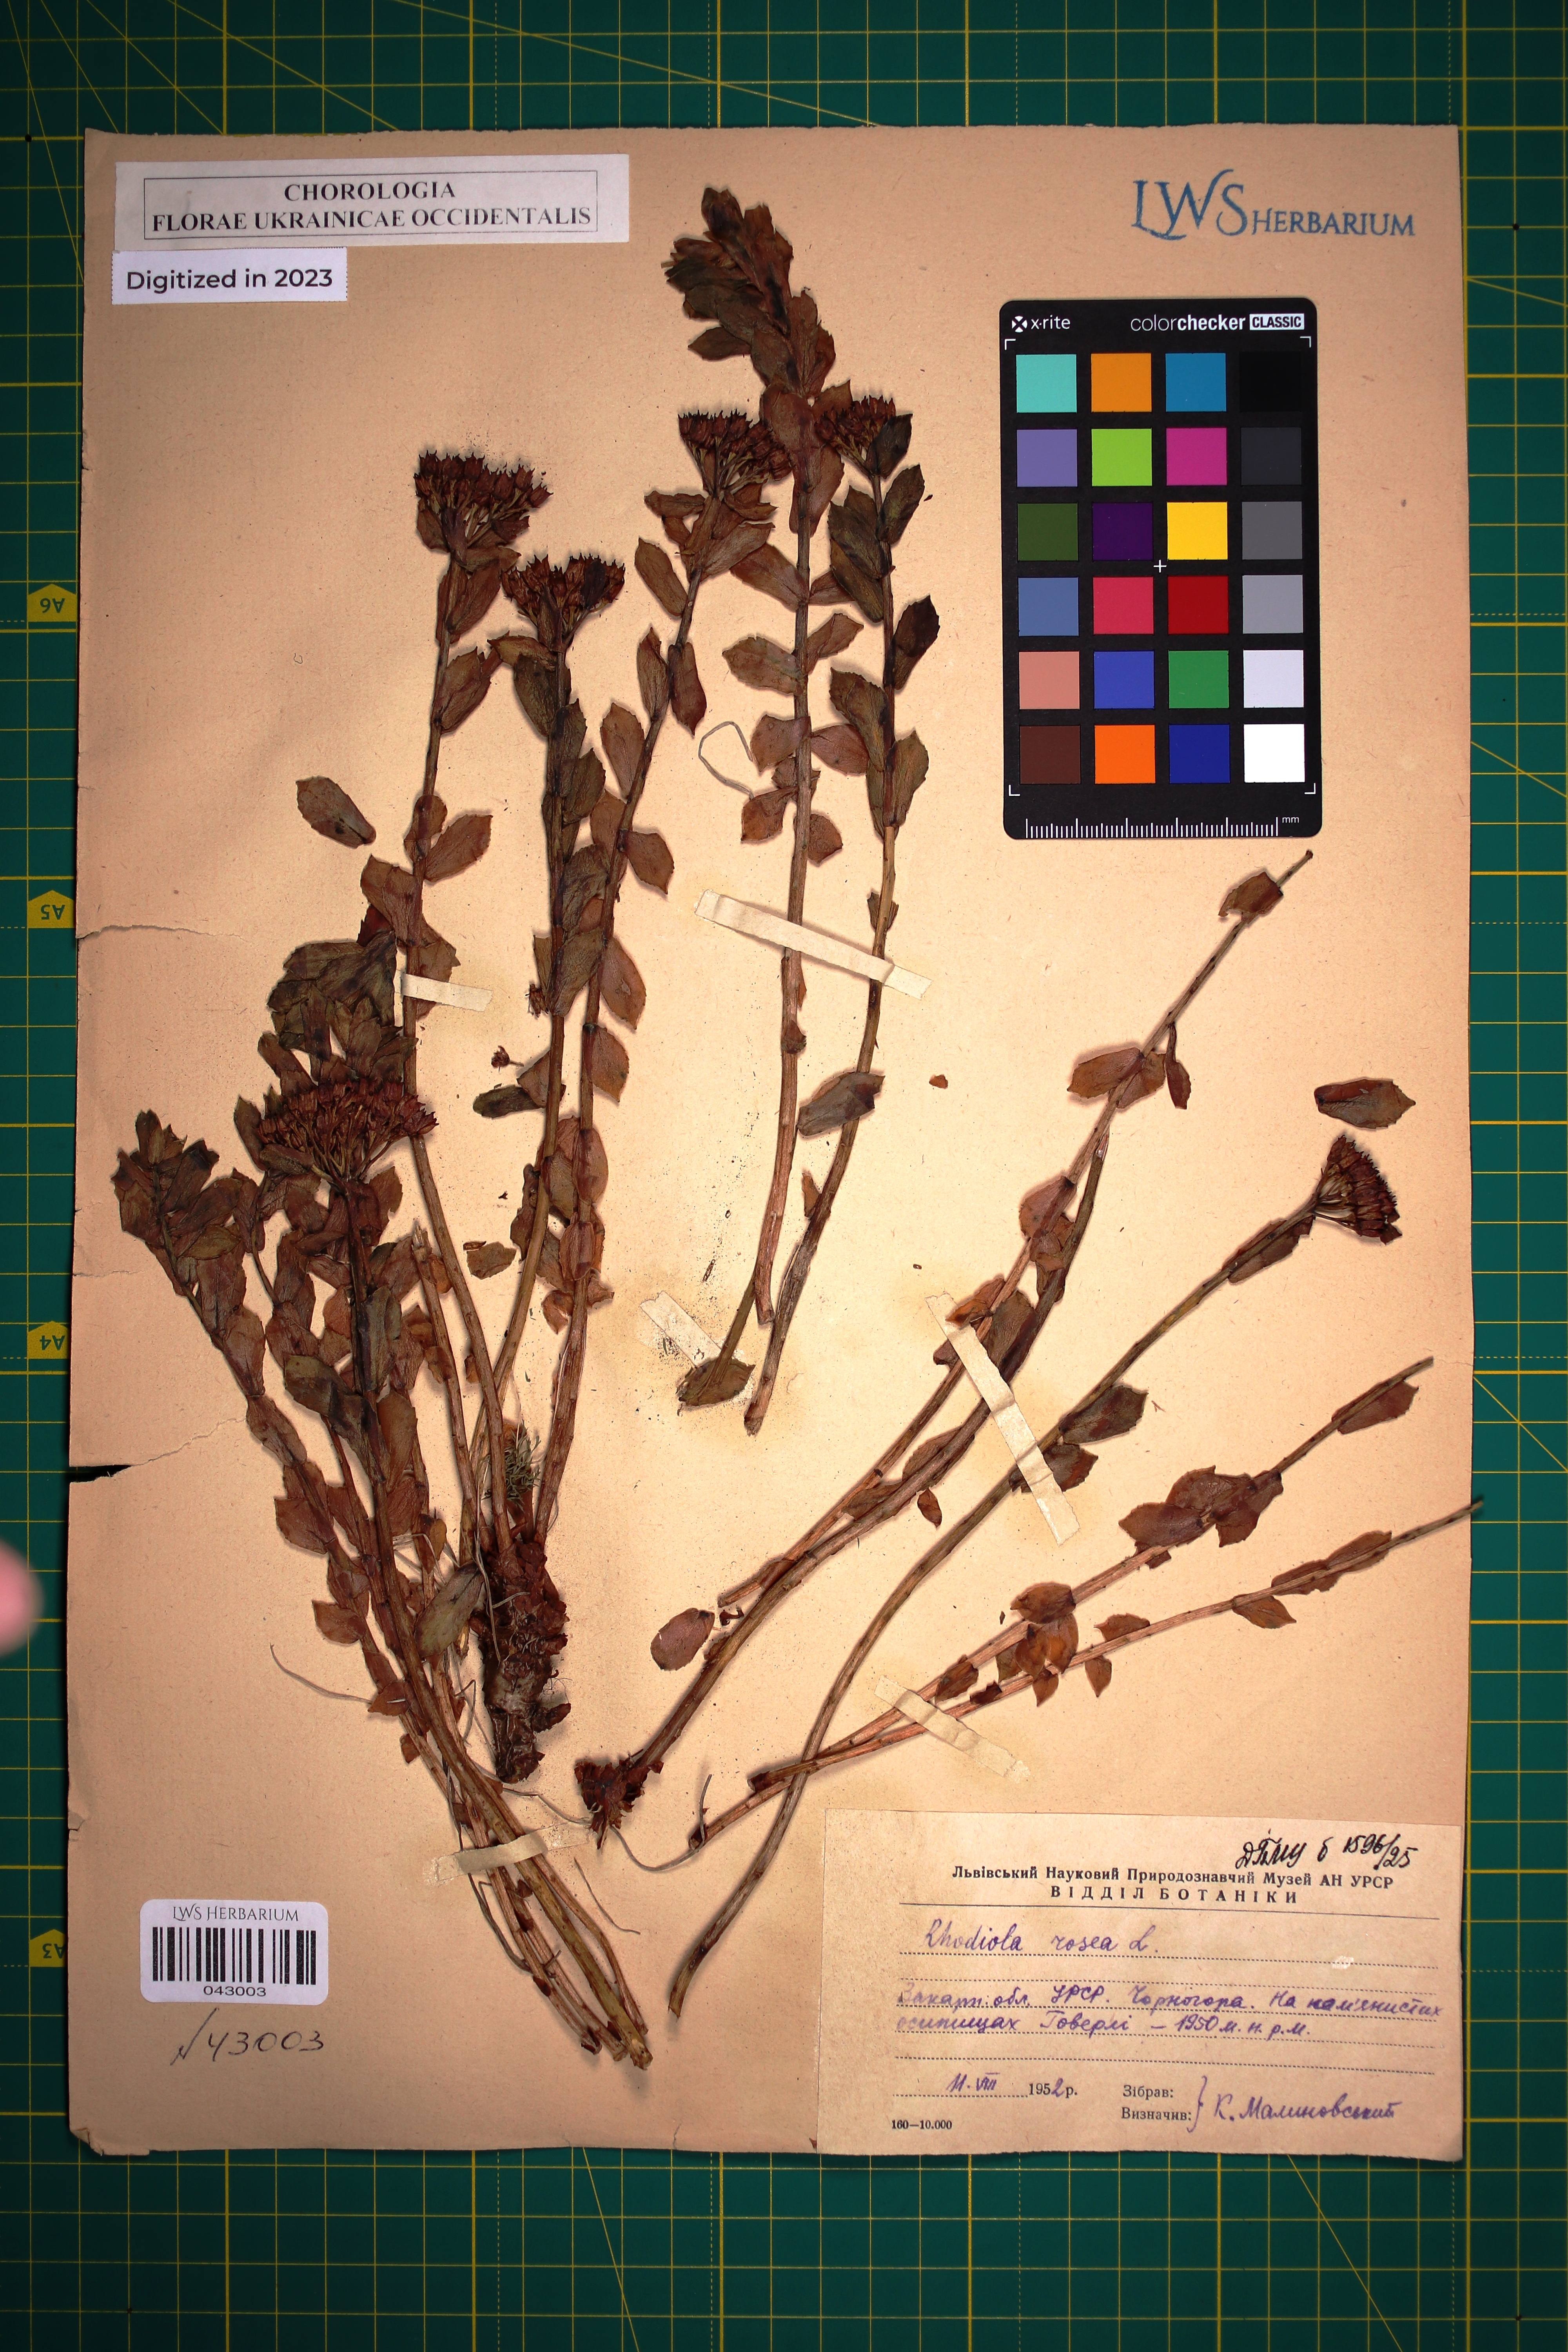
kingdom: Plantae
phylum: Tracheophyta
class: Magnoliopsida
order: Saxifragales
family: Crassulaceae
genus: Rhodiola
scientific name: Rhodiola rosea
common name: Roseroot
